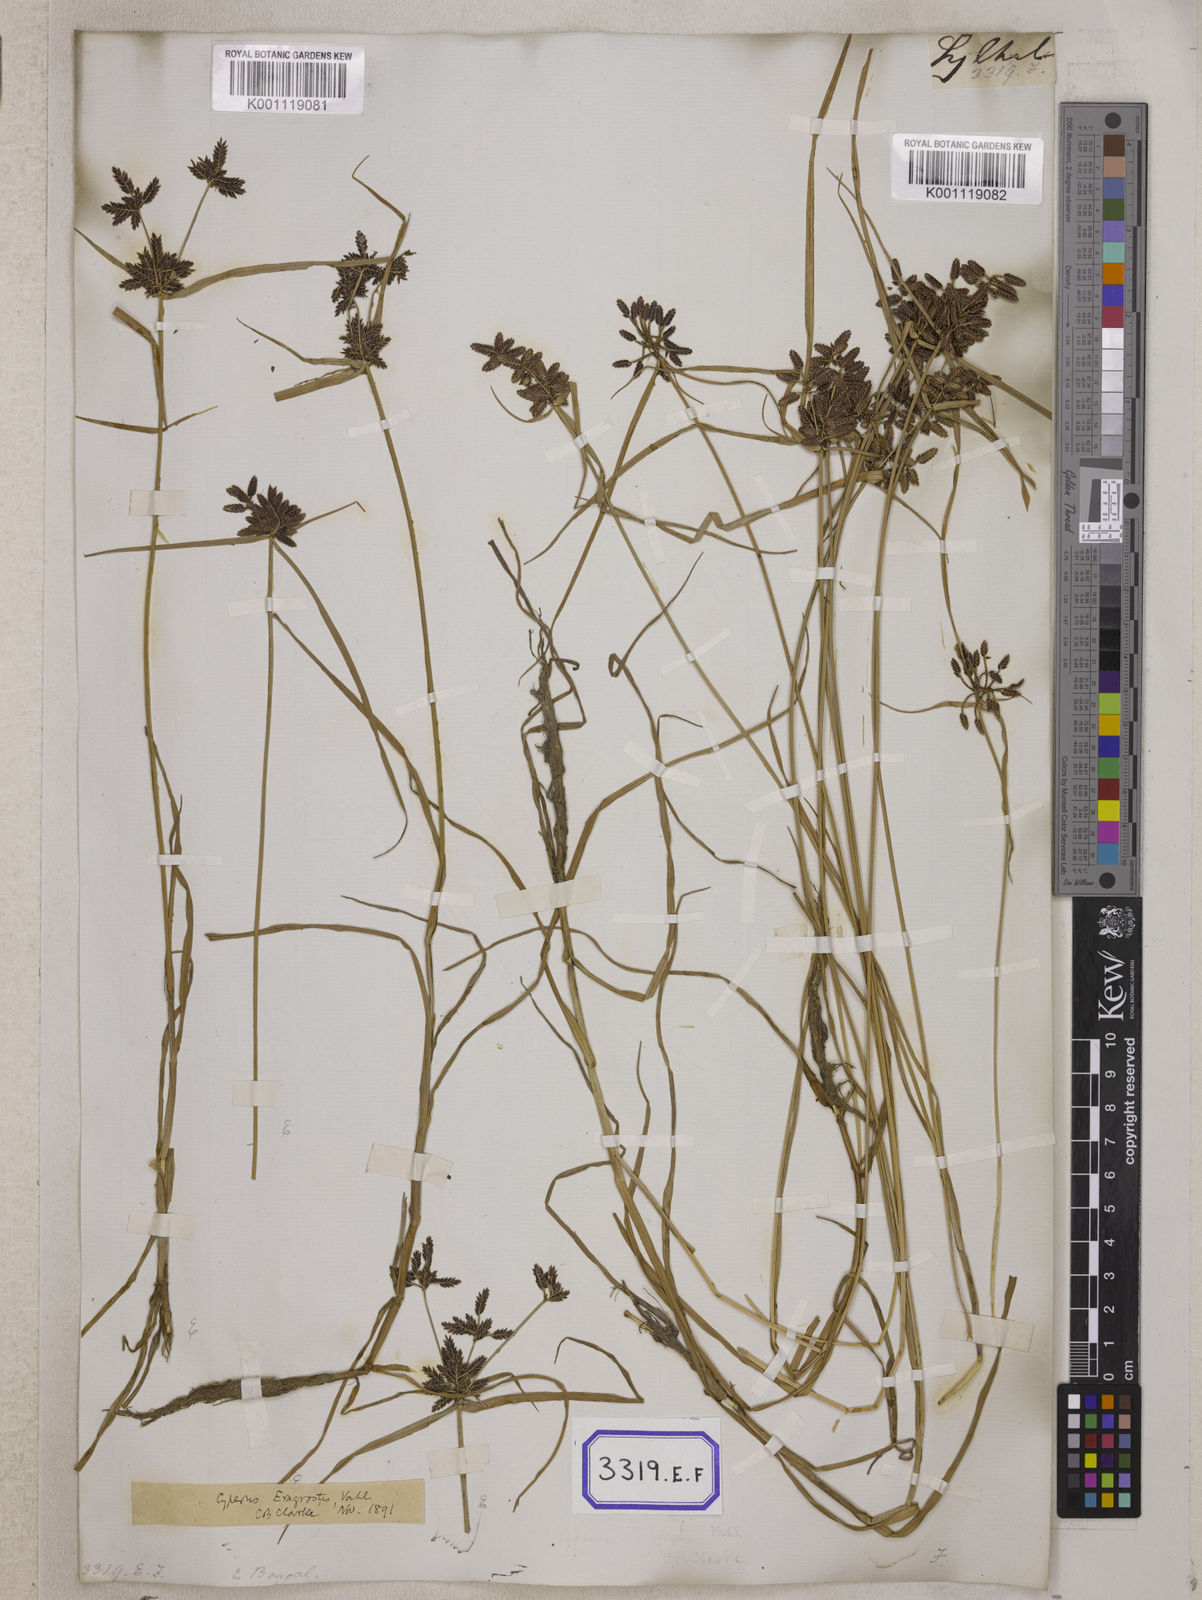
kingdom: Plantae
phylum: Tracheophyta
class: Liliopsida
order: Poales
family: Cyperaceae
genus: Cyperus
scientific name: Cyperus
